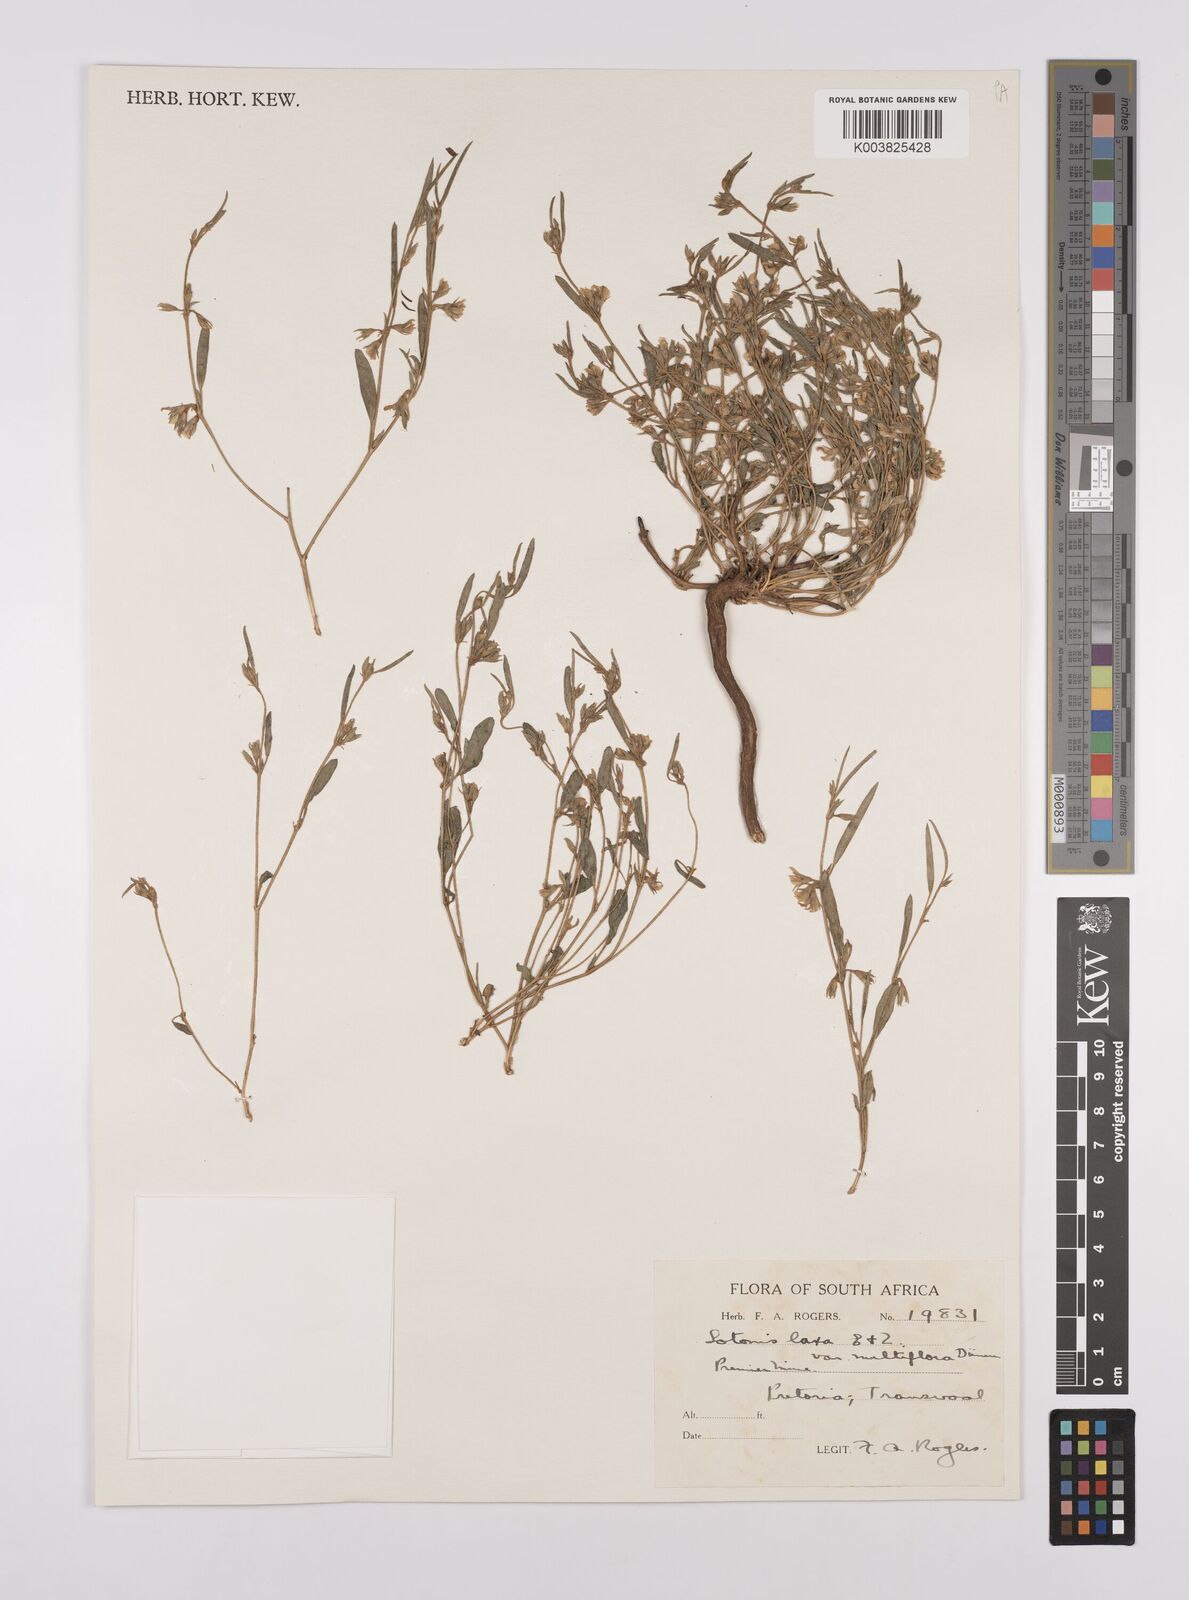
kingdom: Plantae
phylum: Tracheophyta
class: Magnoliopsida
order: Fabales
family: Fabaceae
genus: Lotononis
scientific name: Lotononis laxa
